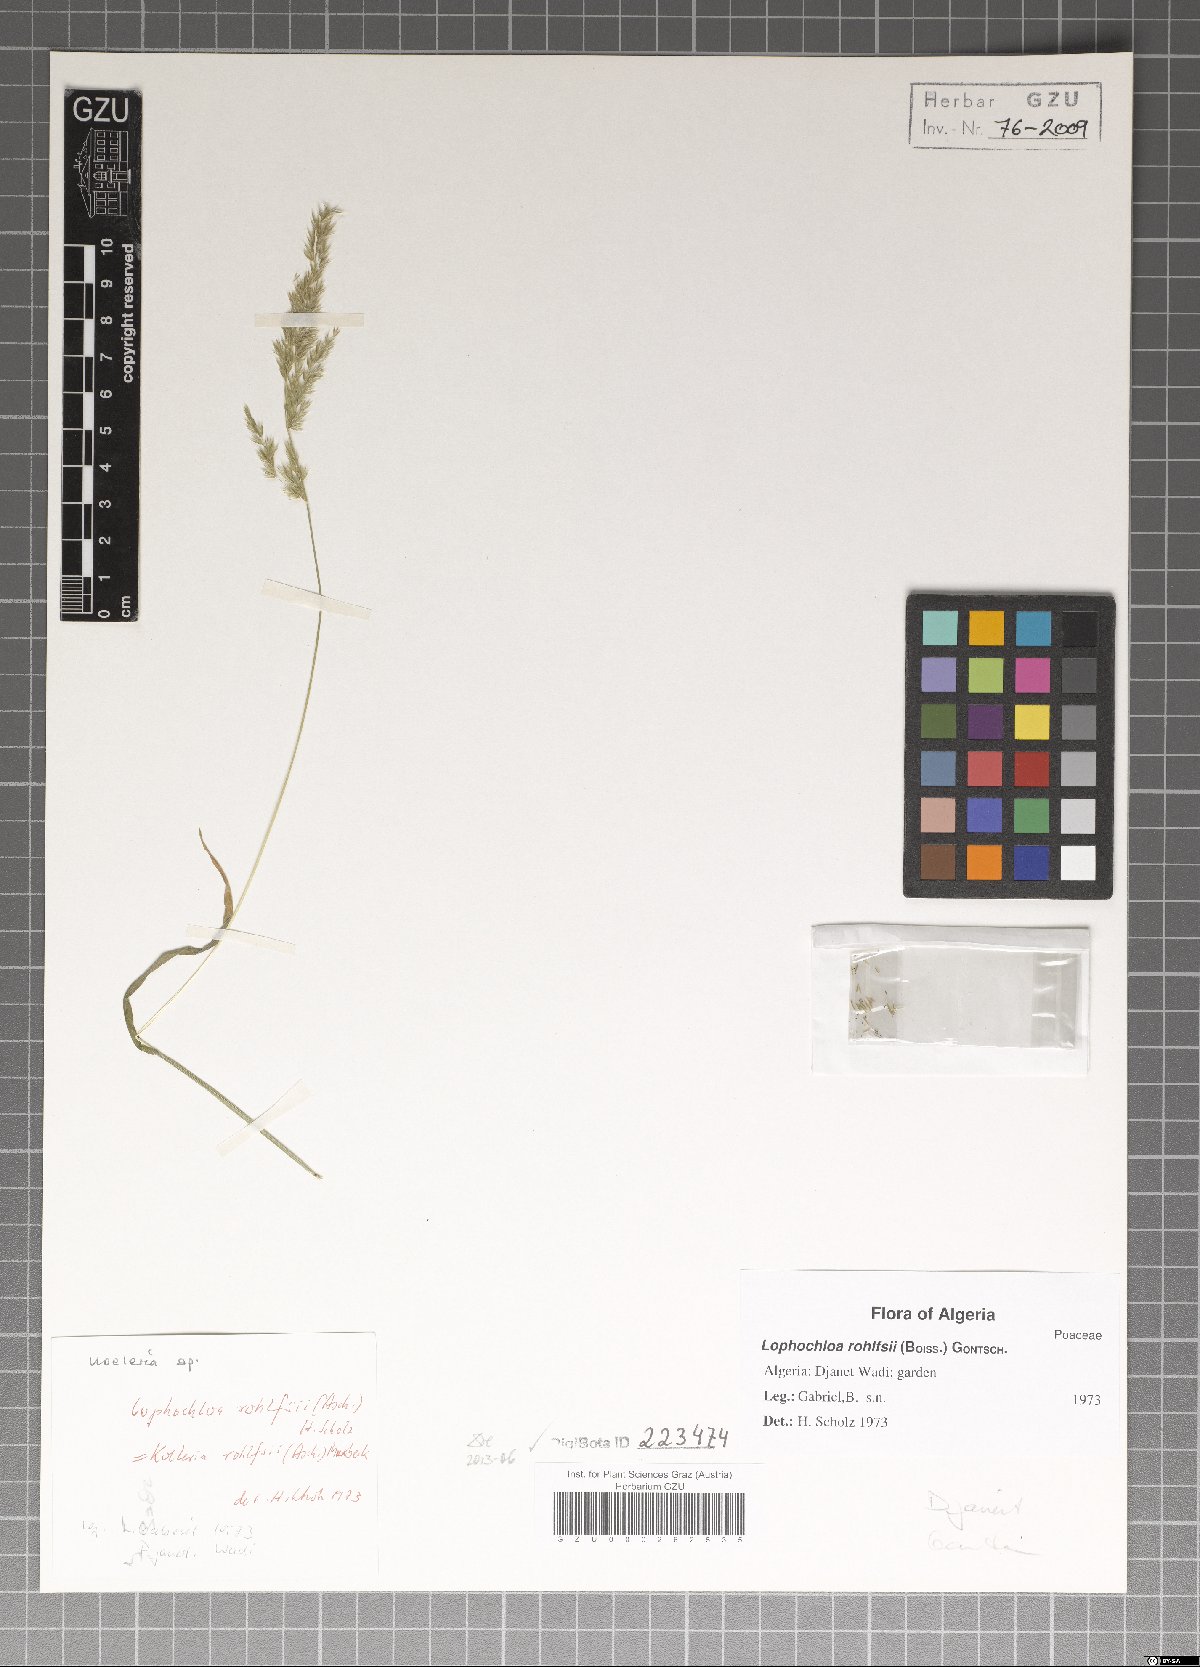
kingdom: Plantae
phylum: Tracheophyta
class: Liliopsida
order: Poales
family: Poaceae
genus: Rostraria
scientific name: Rostraria rohlfsii
